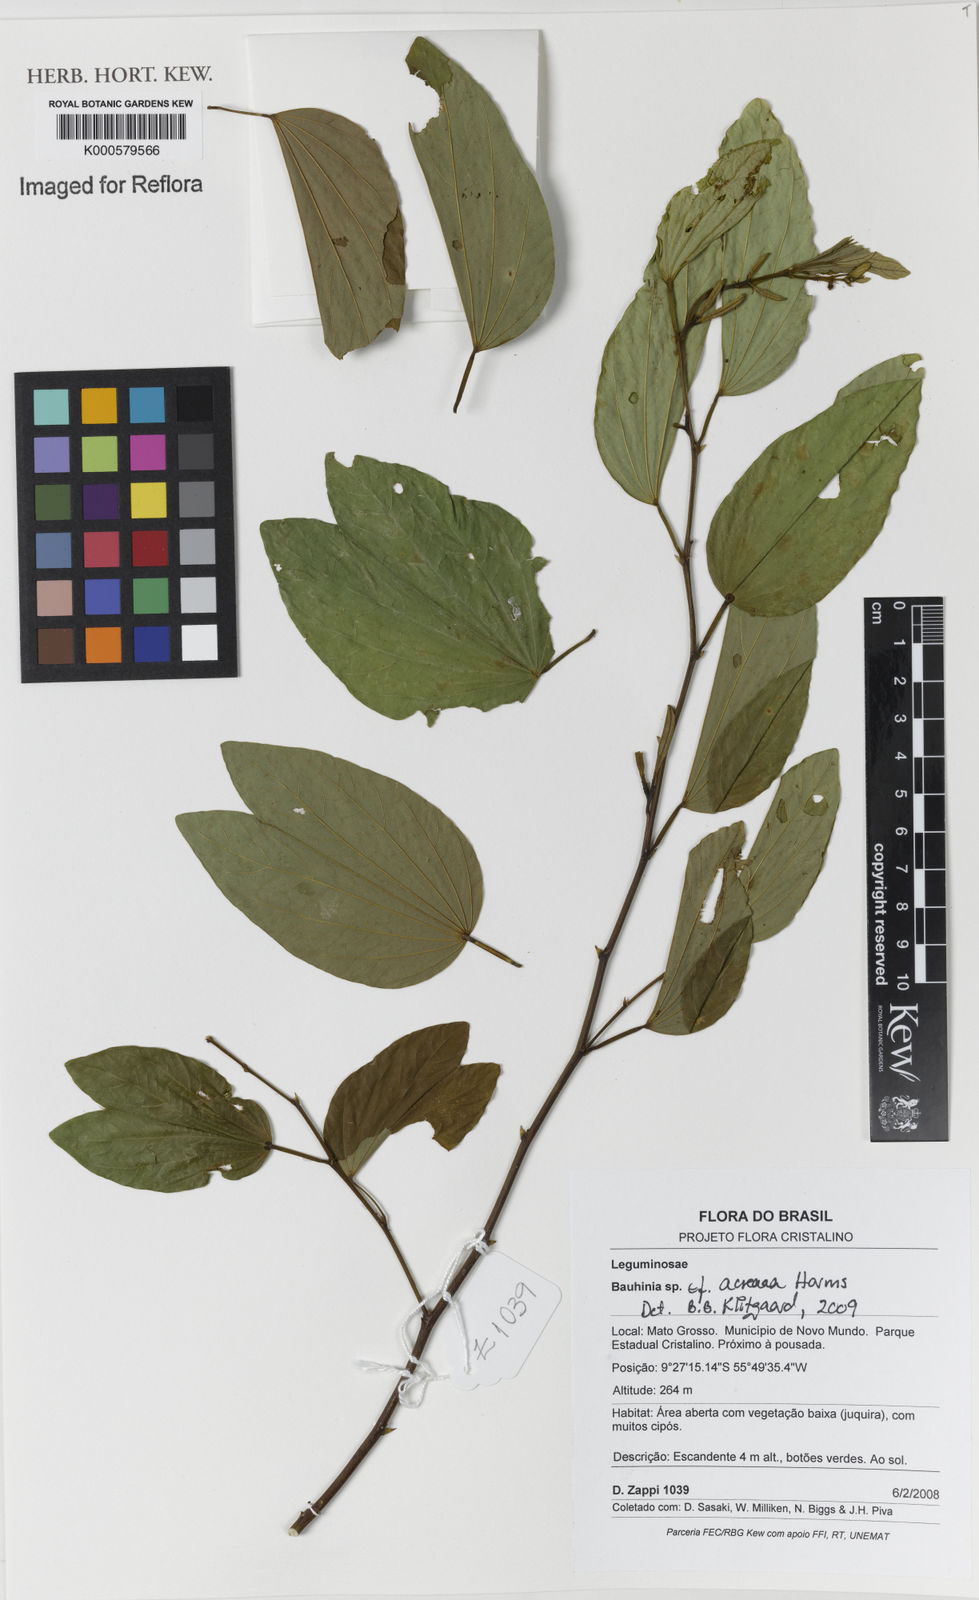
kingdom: Plantae
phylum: Tracheophyta
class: Magnoliopsida
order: Fabales
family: Fabaceae
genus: Bauhinia
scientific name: Bauhinia acreana
